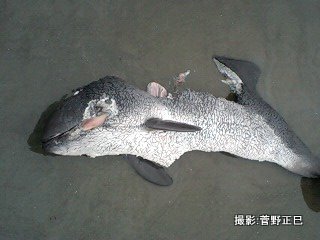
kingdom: Animalia
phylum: Chordata
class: Mammalia
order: Cetacea
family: Phocoenidae
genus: Phocoena
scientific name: Phocoena phocoena
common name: Harbour porpoise
